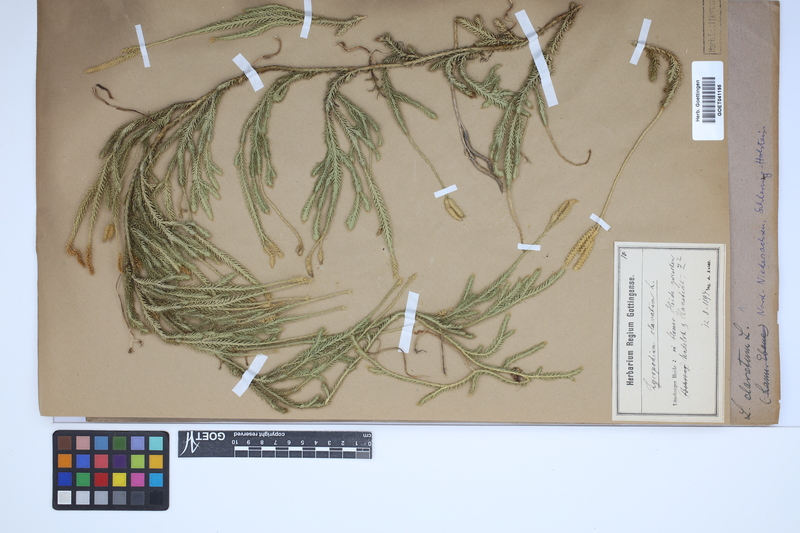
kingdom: Plantae
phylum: Tracheophyta
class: Lycopodiopsida
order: Lycopodiales
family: Lycopodiaceae
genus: Lycopodium
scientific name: Lycopodium clavatum
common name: Stag's-horn clubmoss
